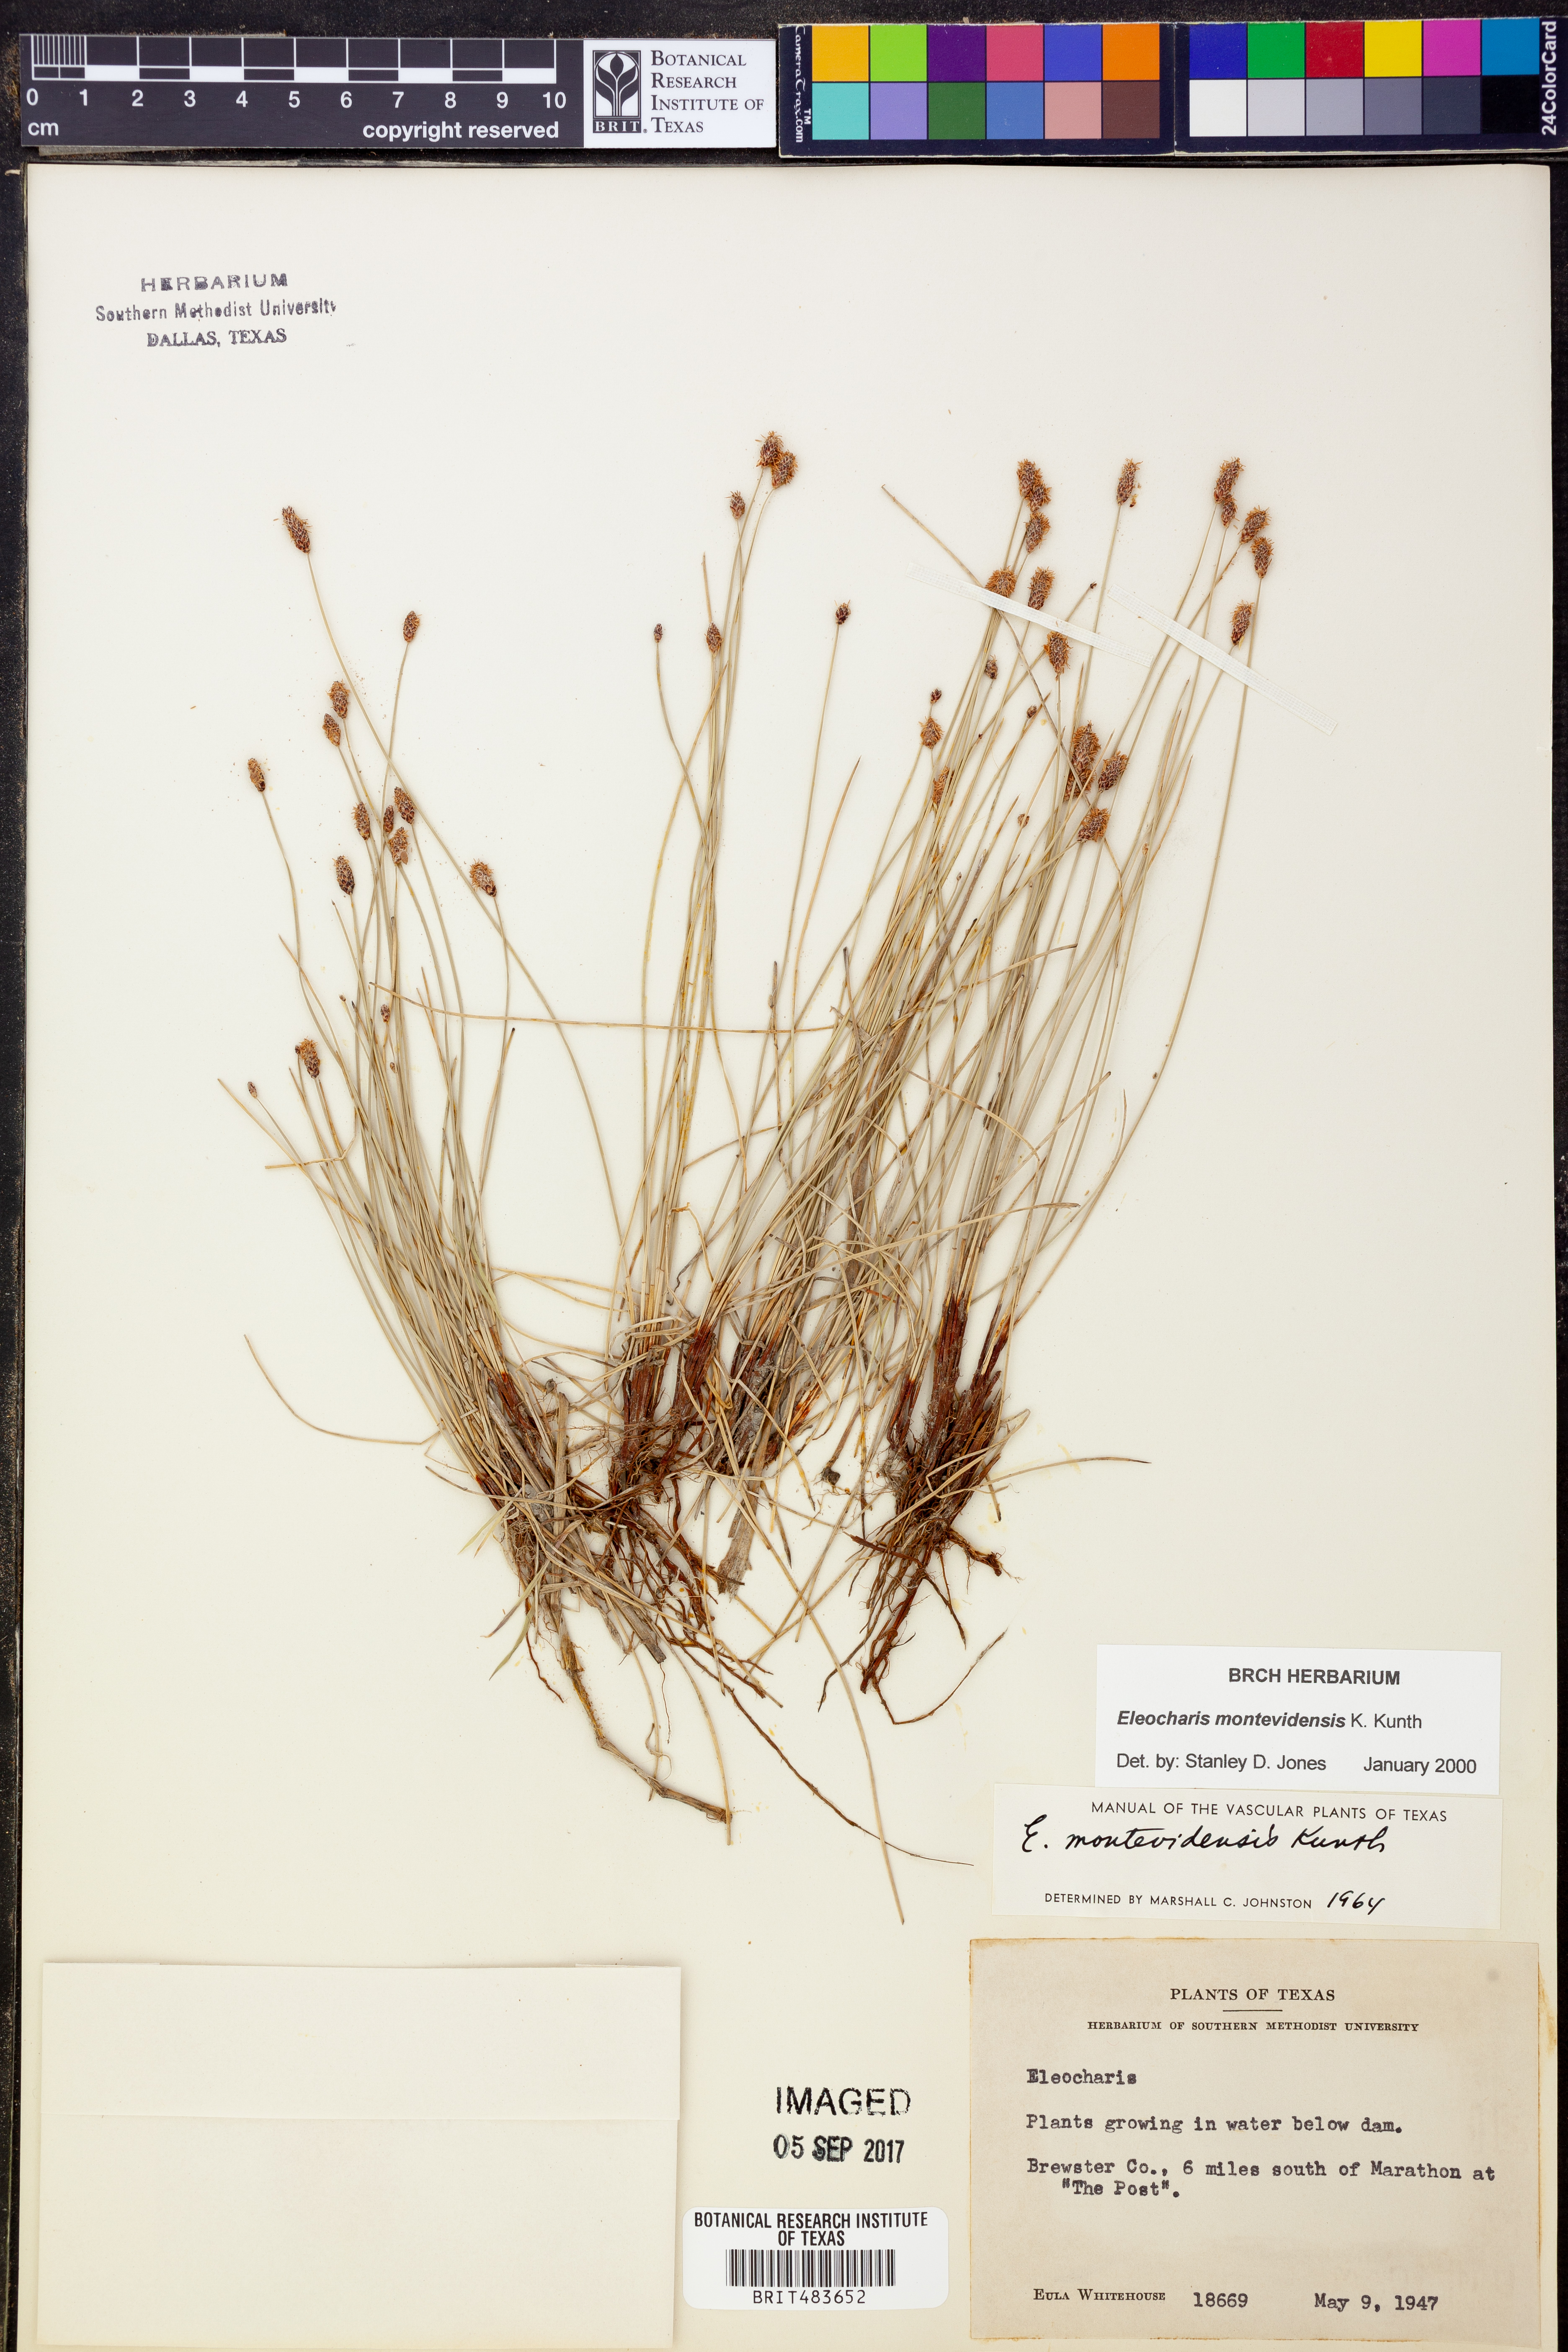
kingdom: Plantae
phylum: Tracheophyta
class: Liliopsida
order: Poales
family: Cyperaceae
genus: Eleocharis
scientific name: Eleocharis montevidensis
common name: Sand spike-rush
